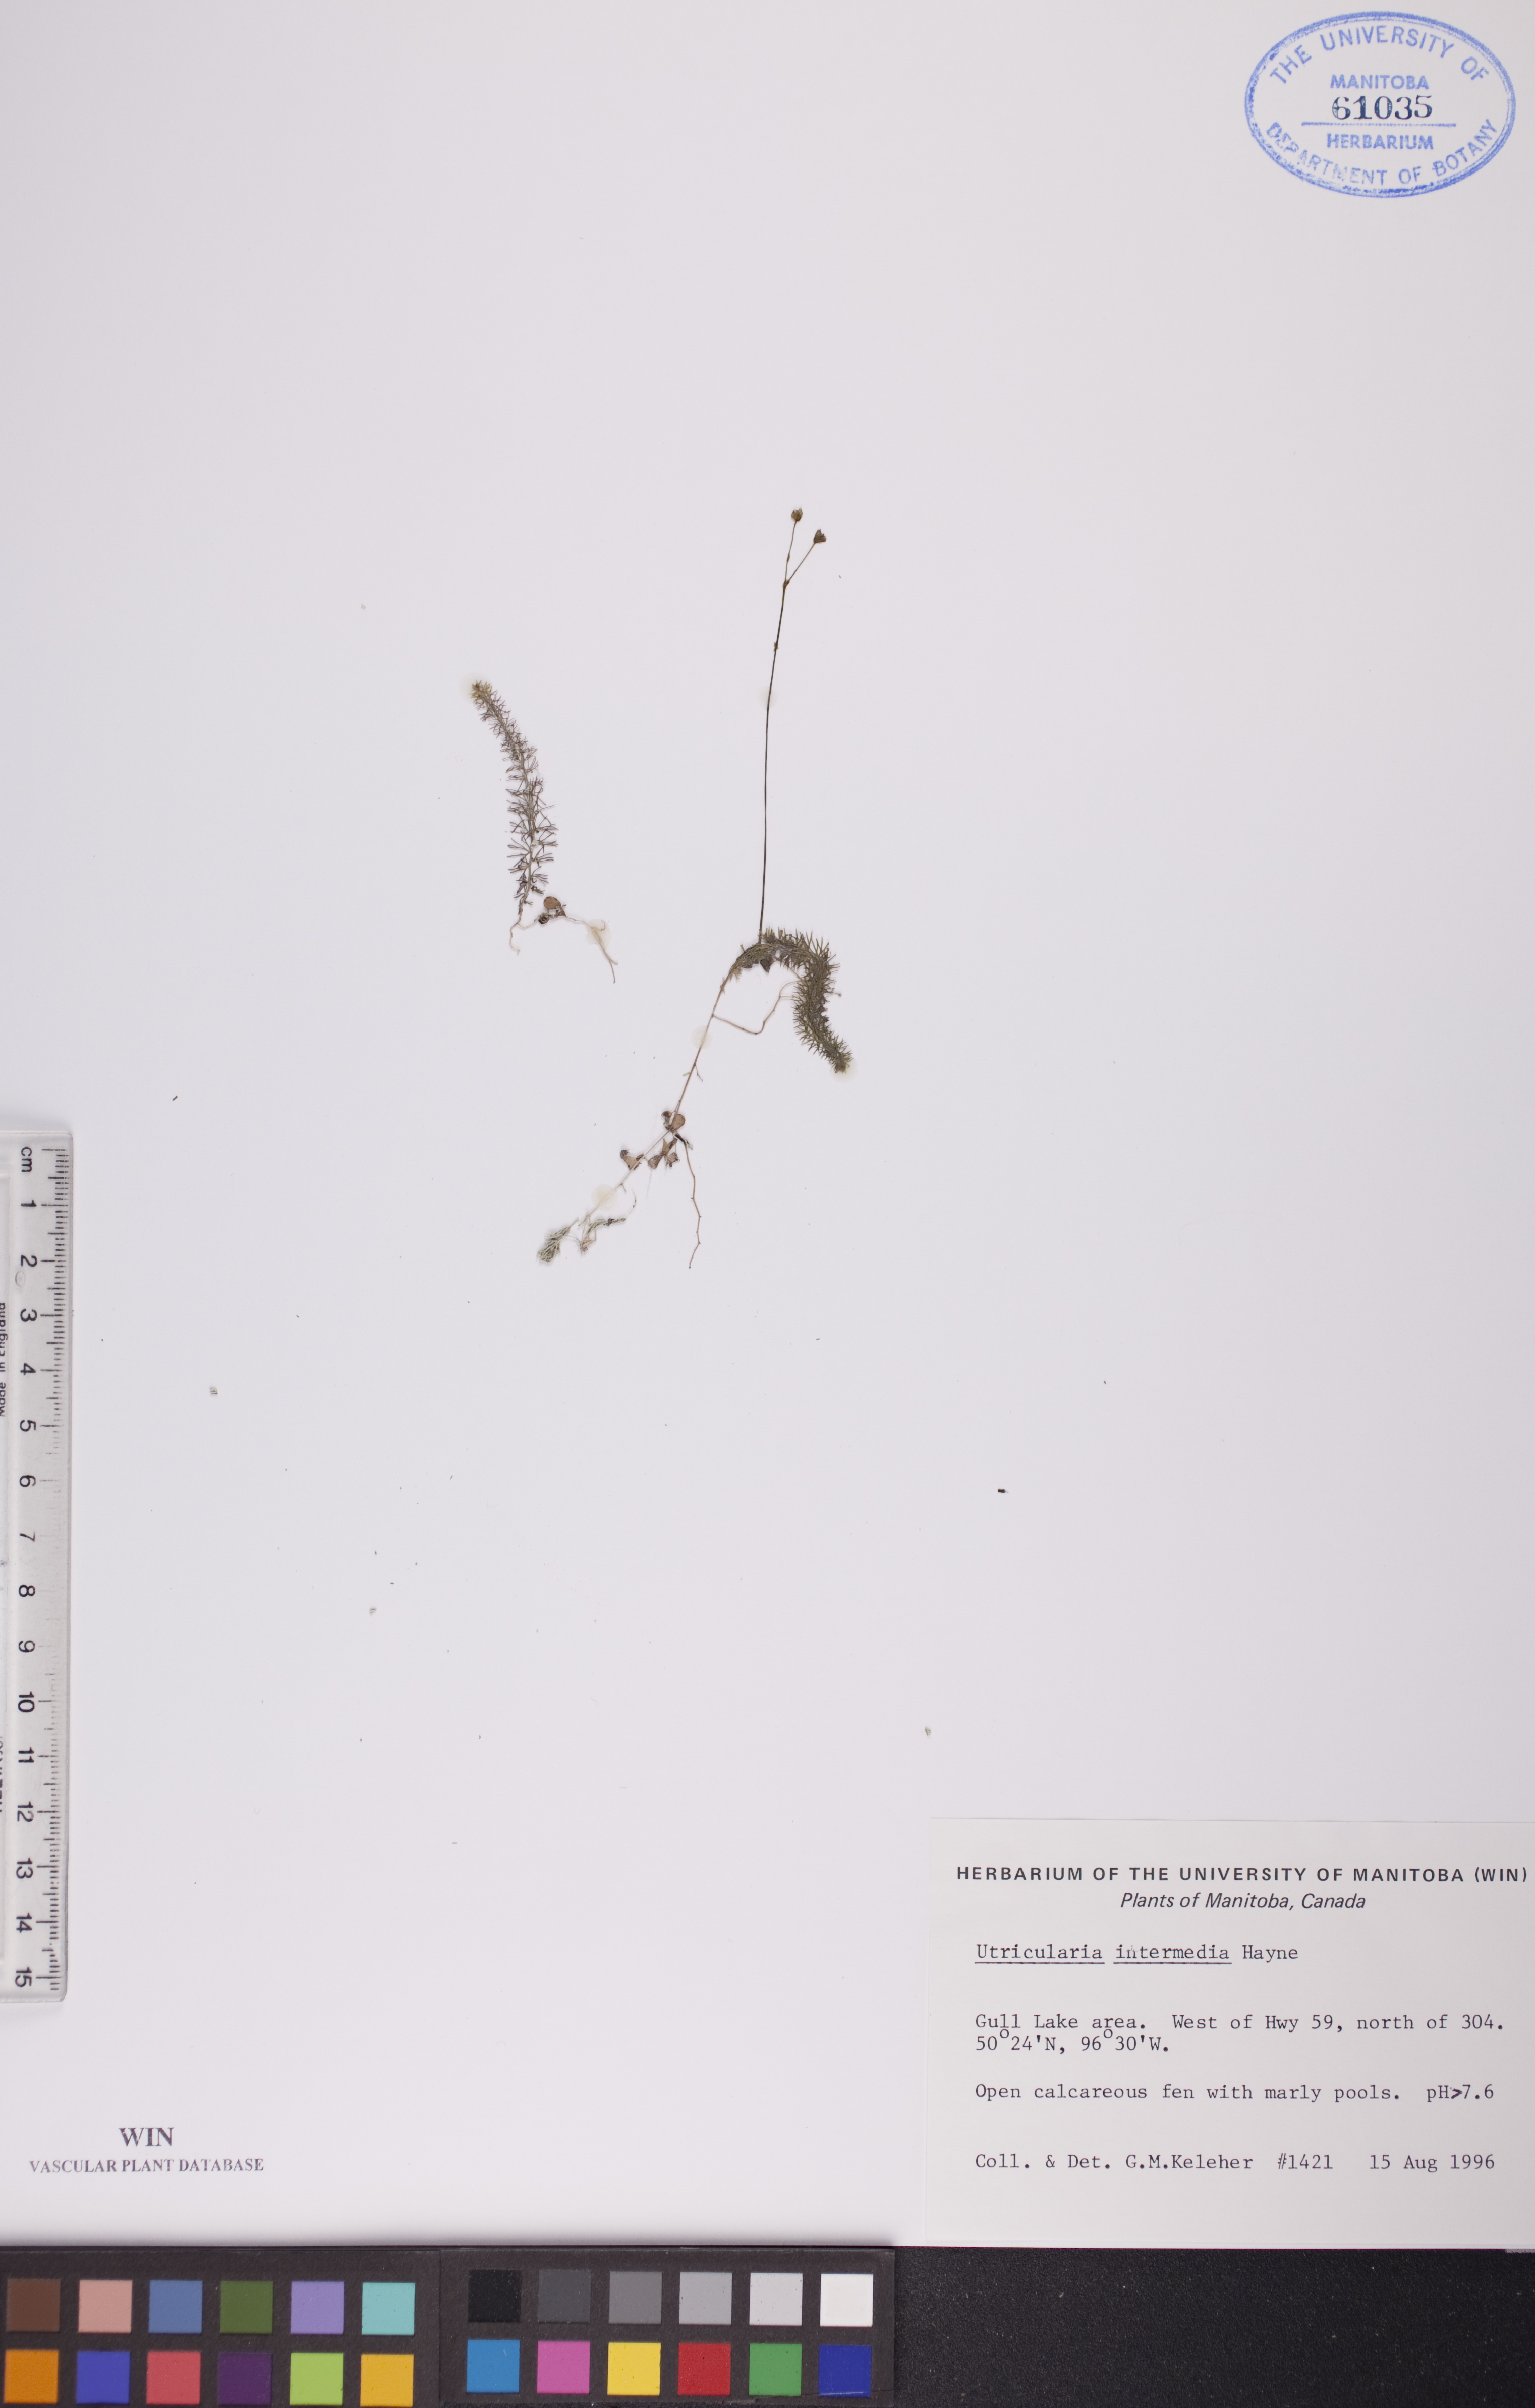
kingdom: Plantae
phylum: Tracheophyta
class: Magnoliopsida
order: Lamiales
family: Lentibulariaceae
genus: Utricularia
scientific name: Utricularia intermedia
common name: Intermediate bladderwort
